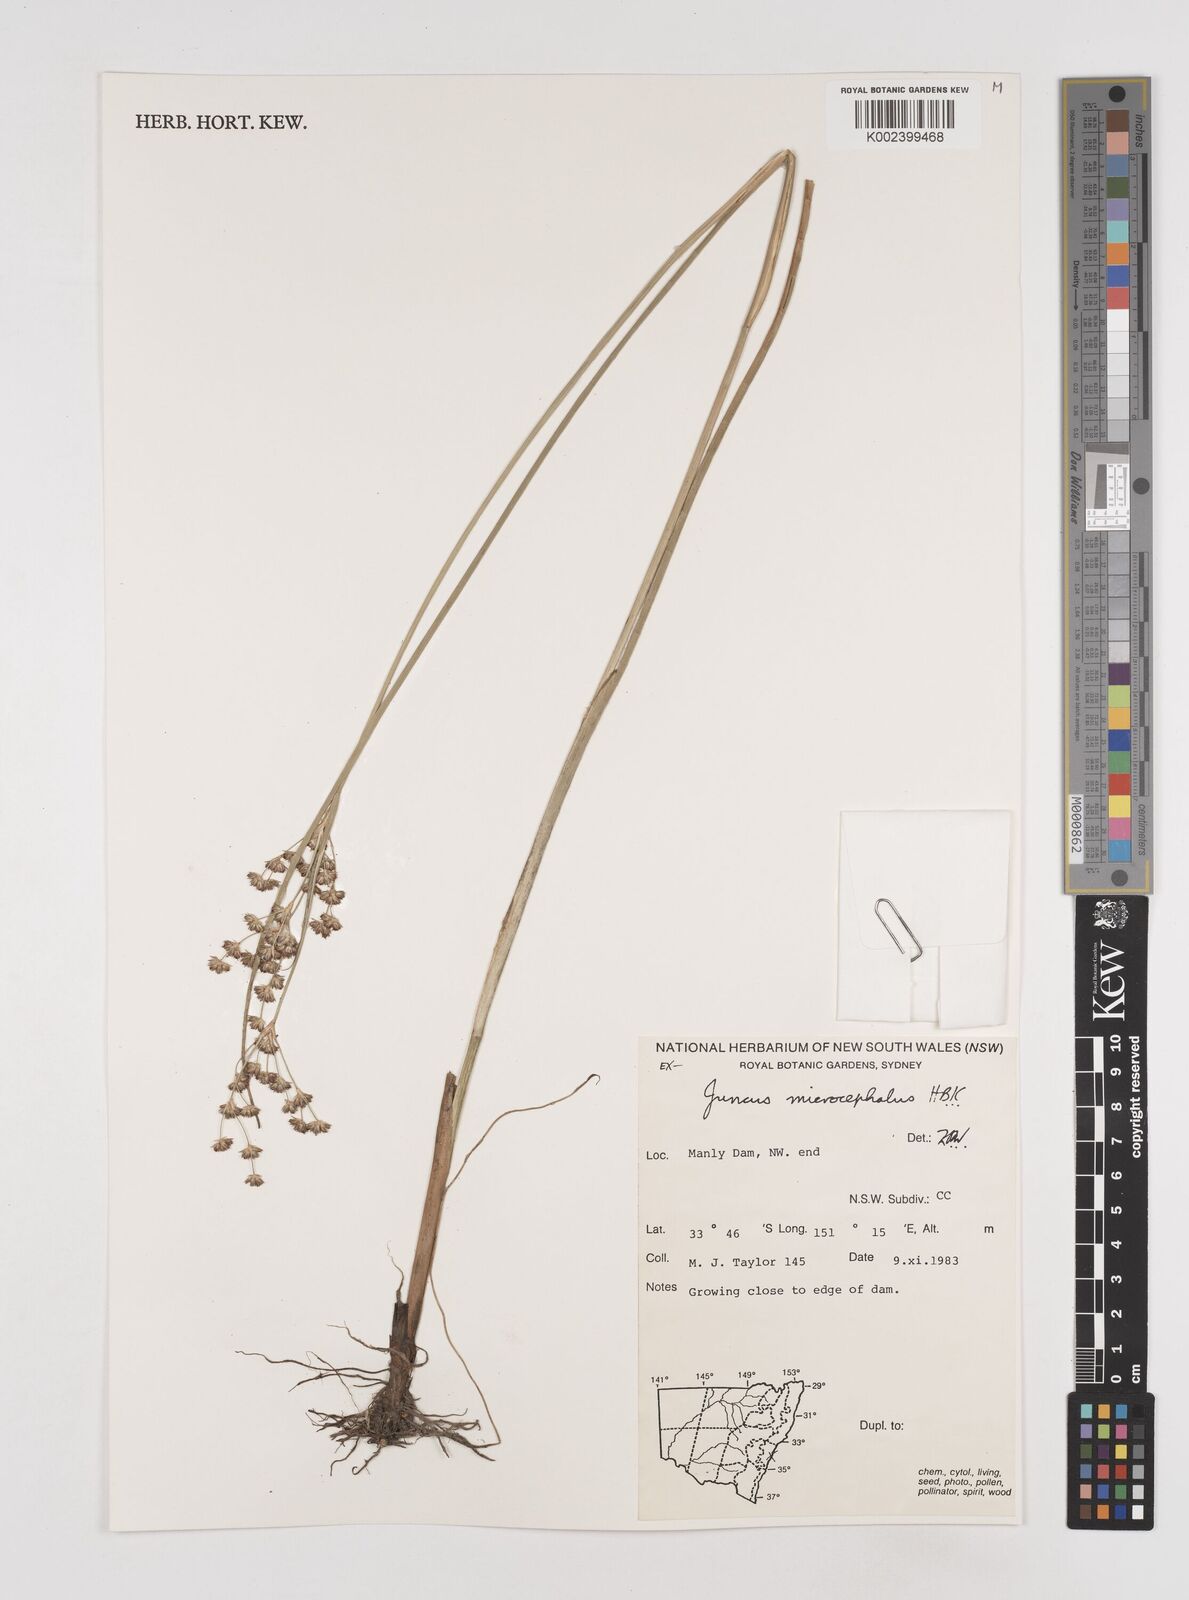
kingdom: Plantae
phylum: Tracheophyta
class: Liliopsida
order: Poales
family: Juncaceae
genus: Juncus
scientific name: Juncus microcephalus
